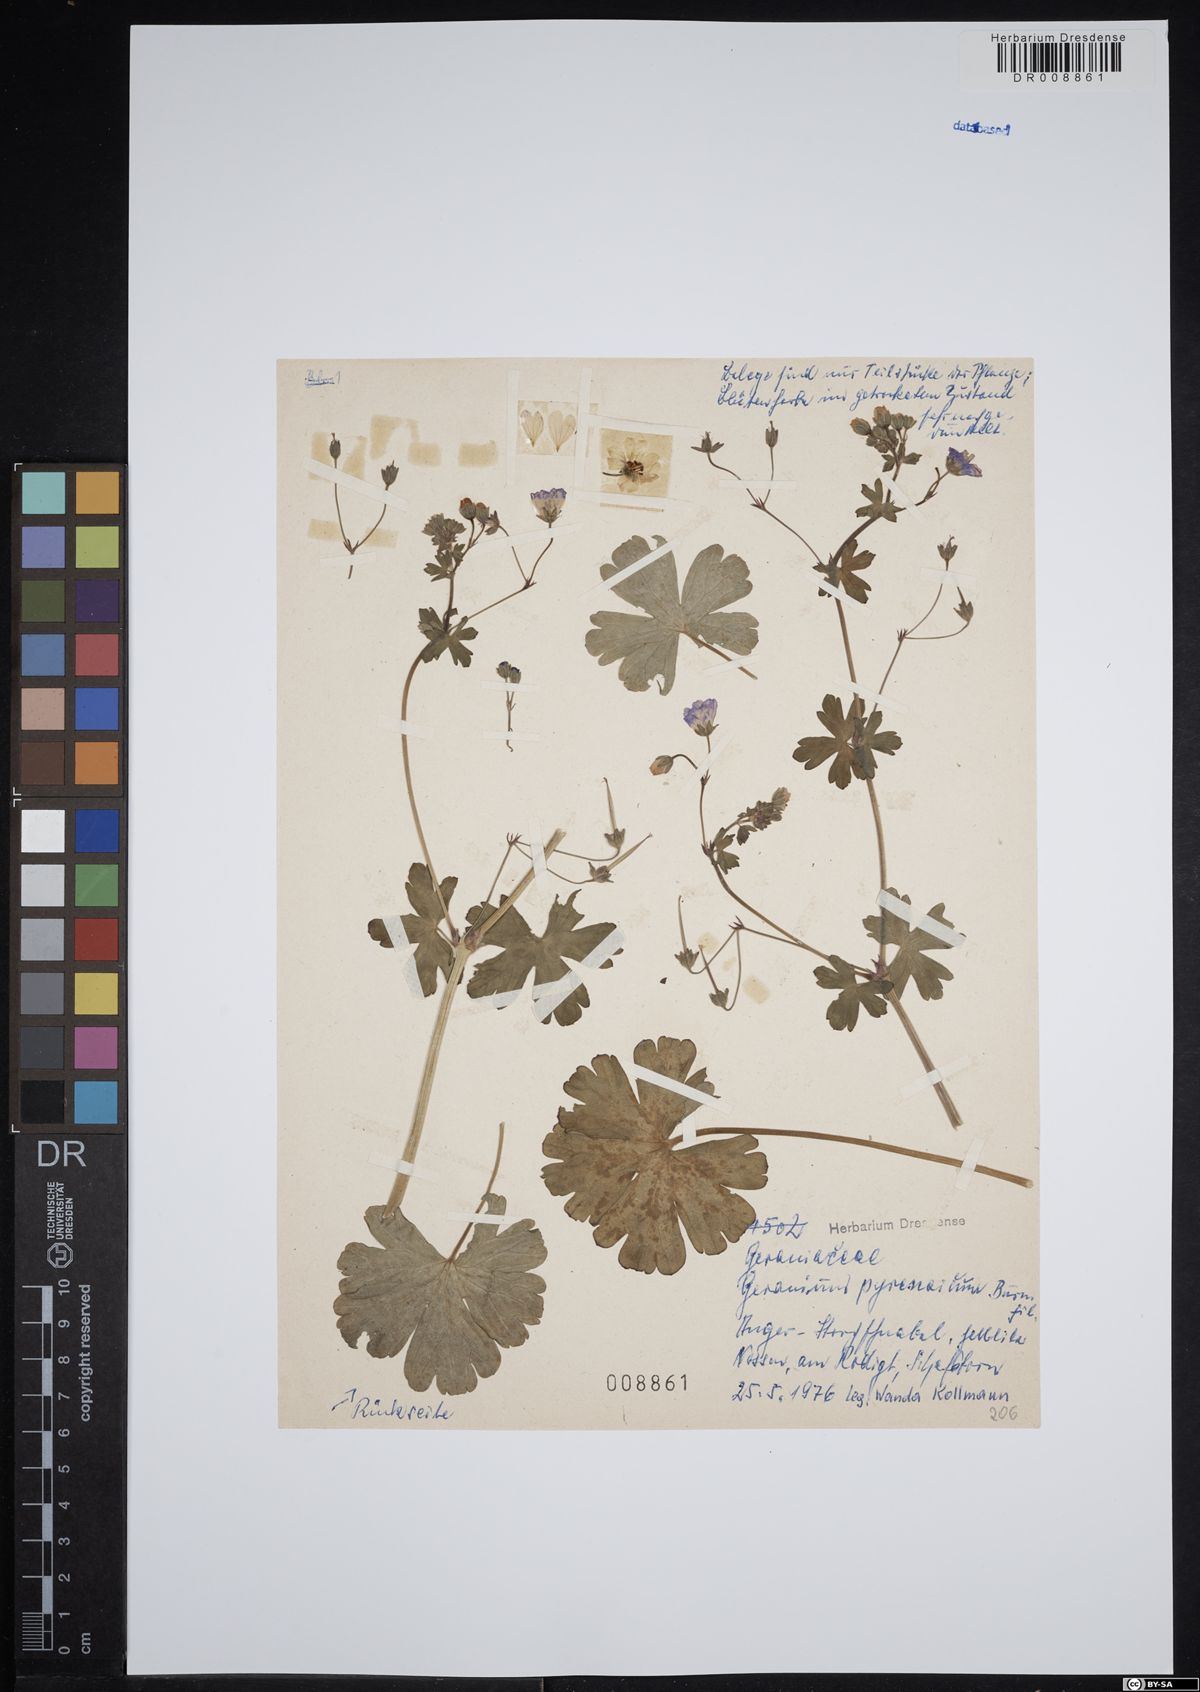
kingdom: Plantae
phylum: Tracheophyta
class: Magnoliopsida
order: Geraniales
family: Geraniaceae
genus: Geranium
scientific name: Geranium pyrenaicum
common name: Hedgerow crane's-bill
